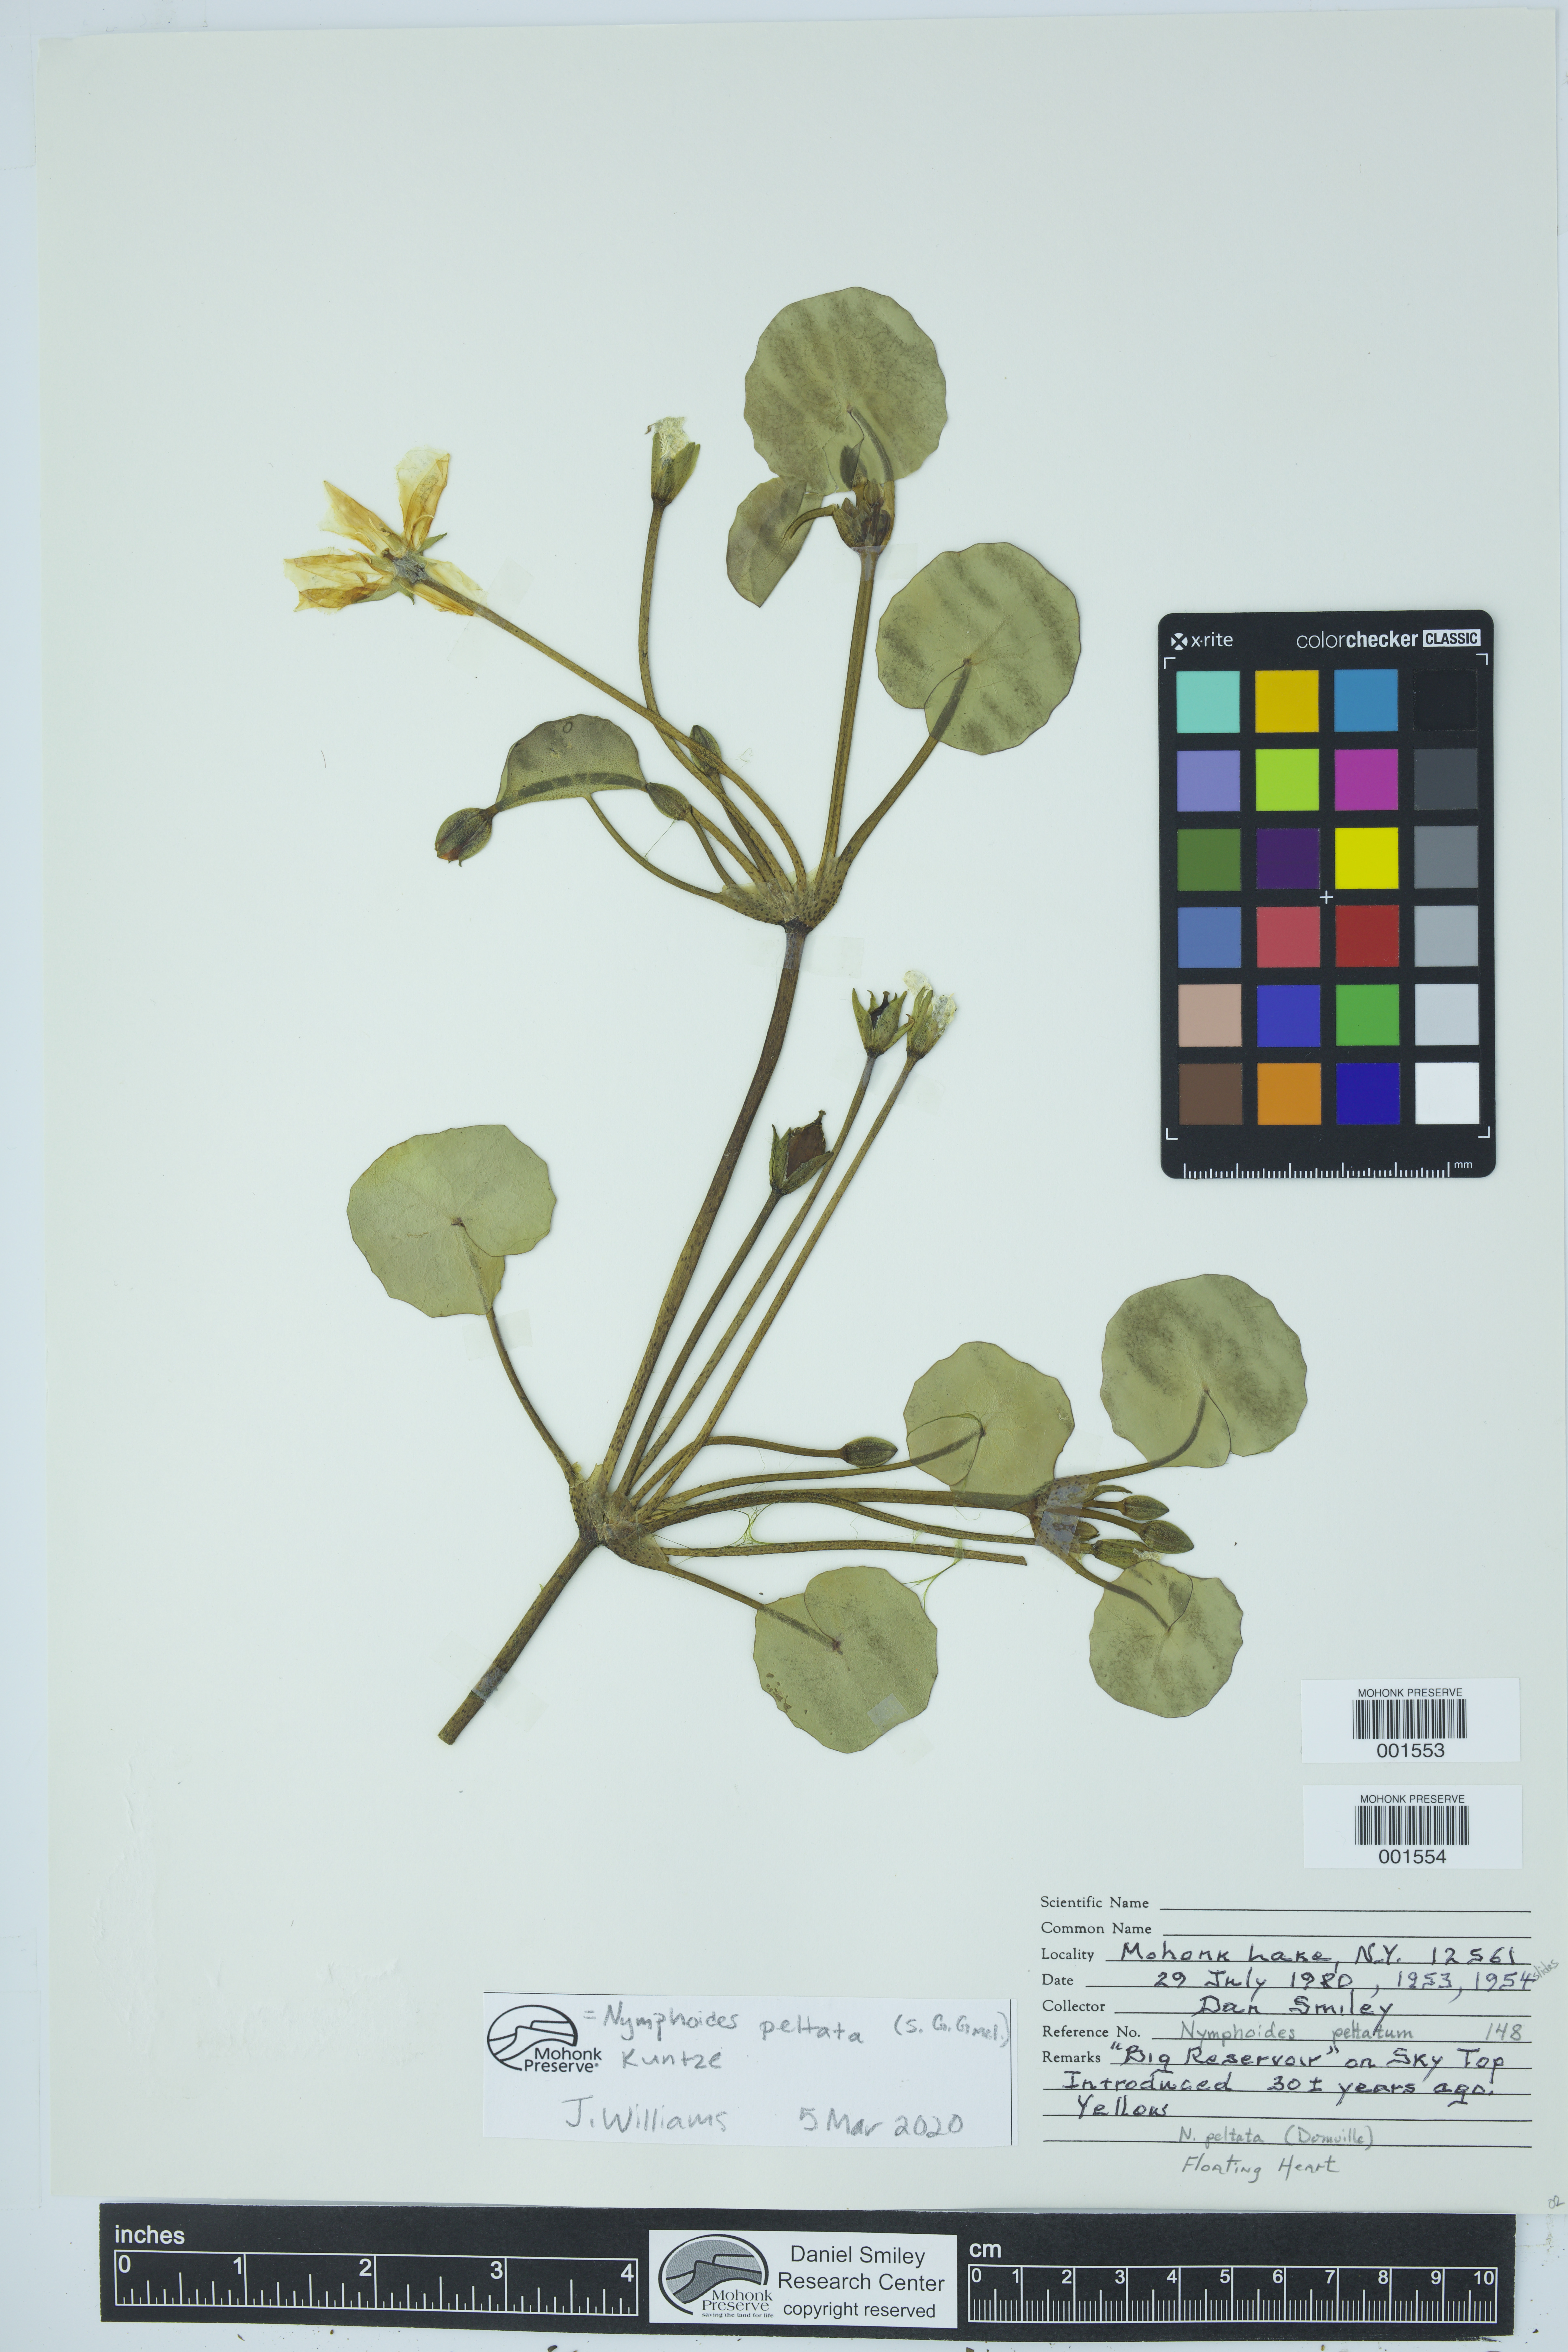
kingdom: Plantae
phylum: Tracheophyta
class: Magnoliopsida
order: Asterales
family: Menyanthaceae
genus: Nymphoides
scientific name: Nymphoides peltata
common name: Fringed water-lily
